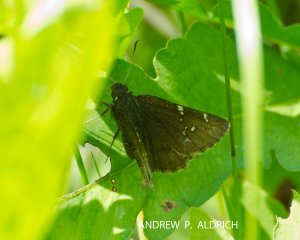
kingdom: Animalia
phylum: Arthropoda
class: Insecta
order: Lepidoptera
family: Hesperiidae
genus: Autochton
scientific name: Autochton
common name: Northern Cloudywing
